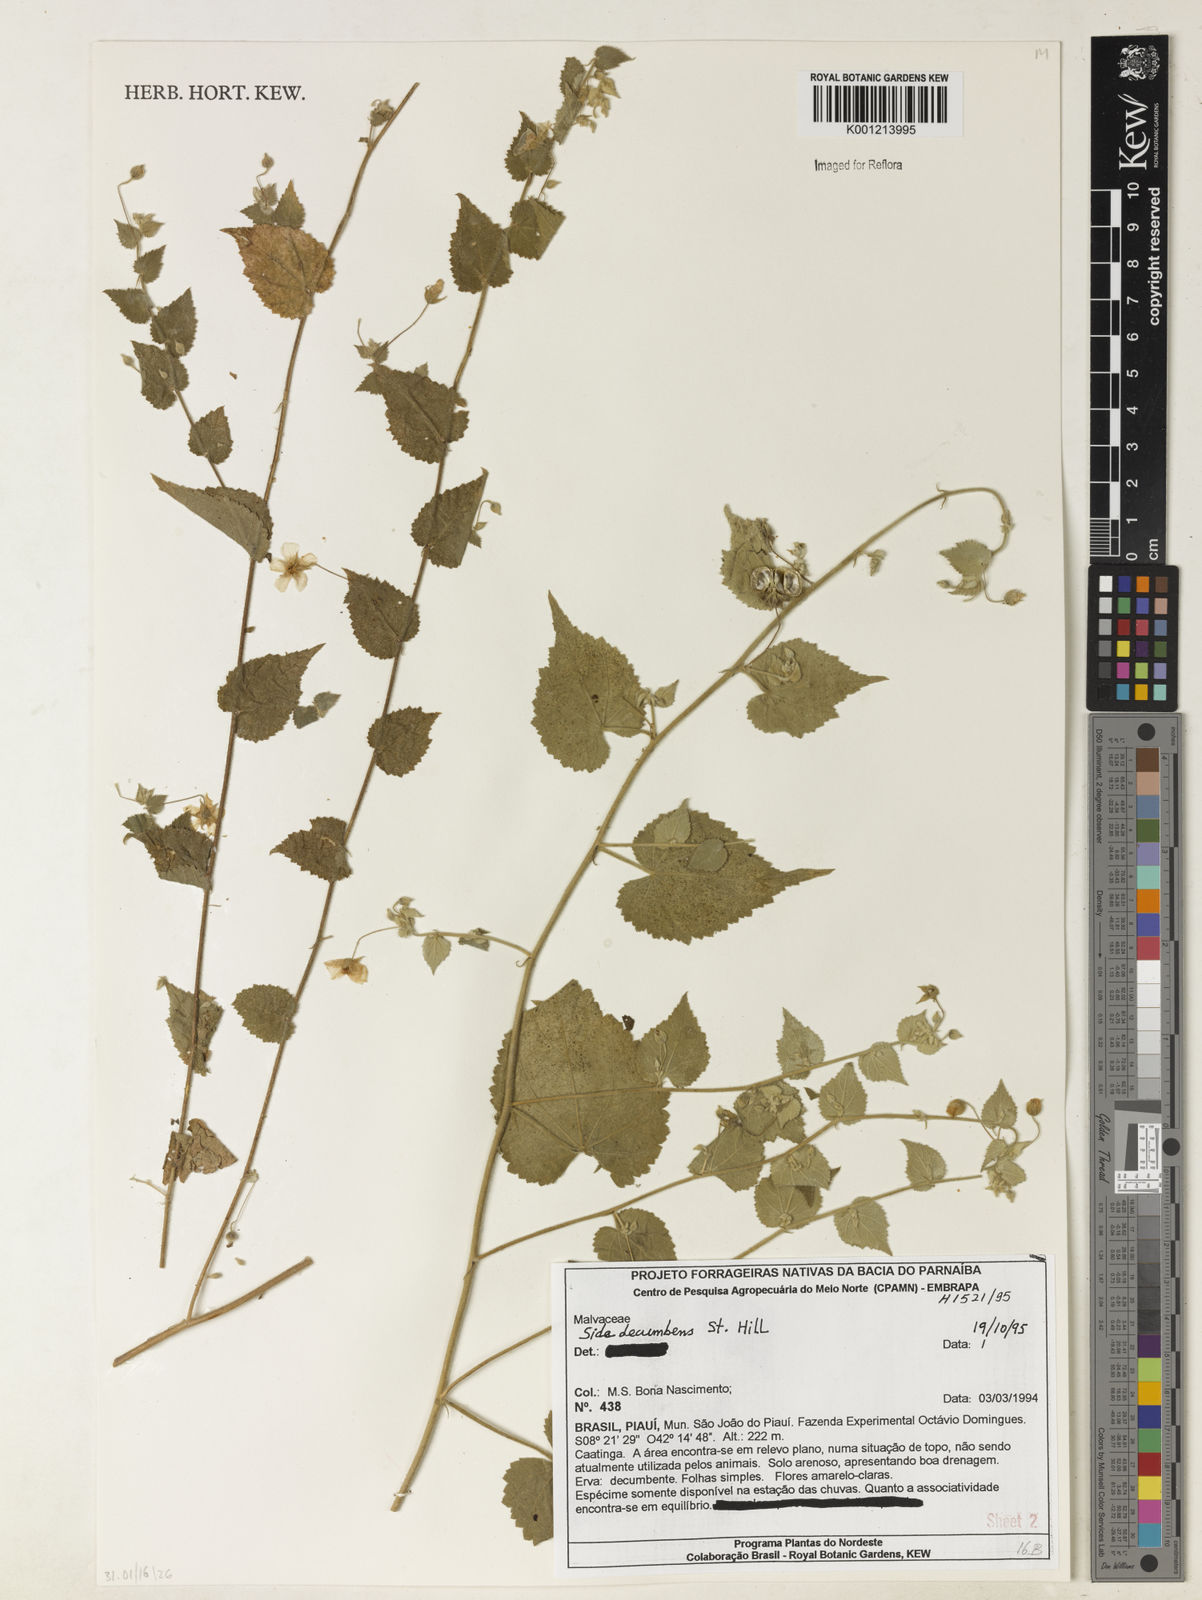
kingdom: Plantae
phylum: Tracheophyta
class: Magnoliopsida
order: Malvales
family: Malvaceae
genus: Sida
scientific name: Sida jussieana
